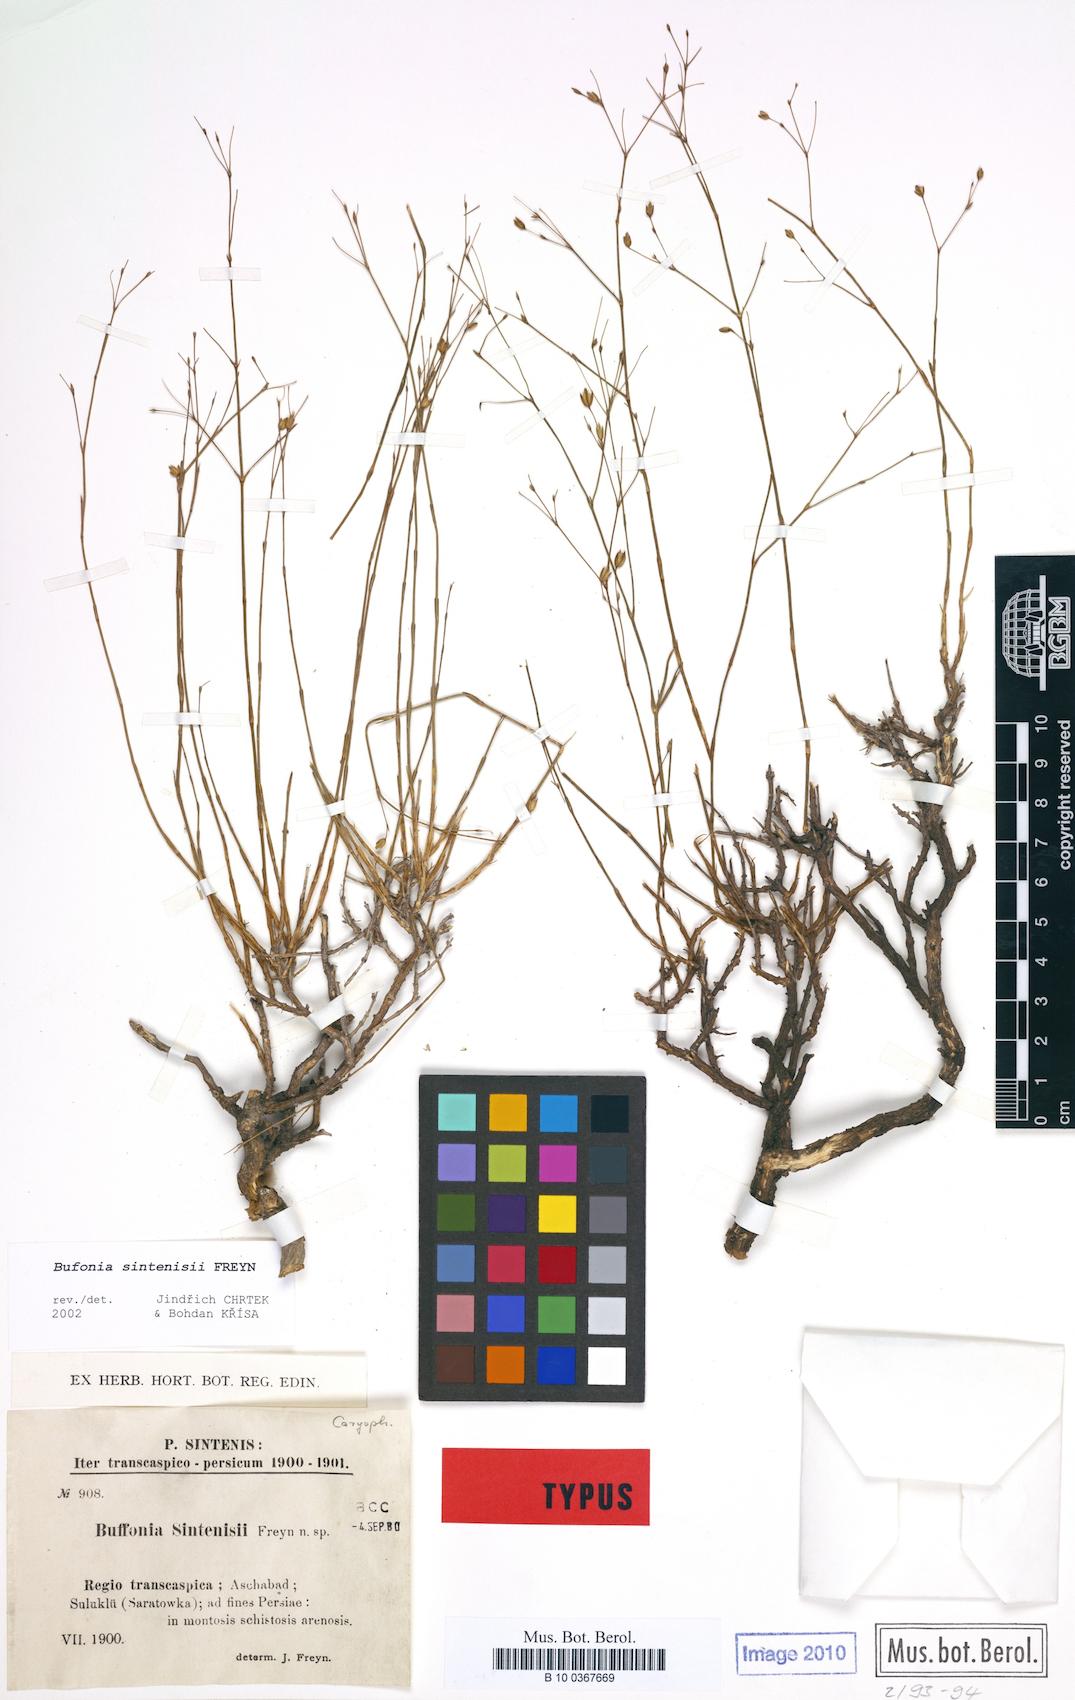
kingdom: Plantae
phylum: Tracheophyta
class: Magnoliopsida
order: Caryophyllales
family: Caryophyllaceae
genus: Bufonia
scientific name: Bufonia sintenisii
